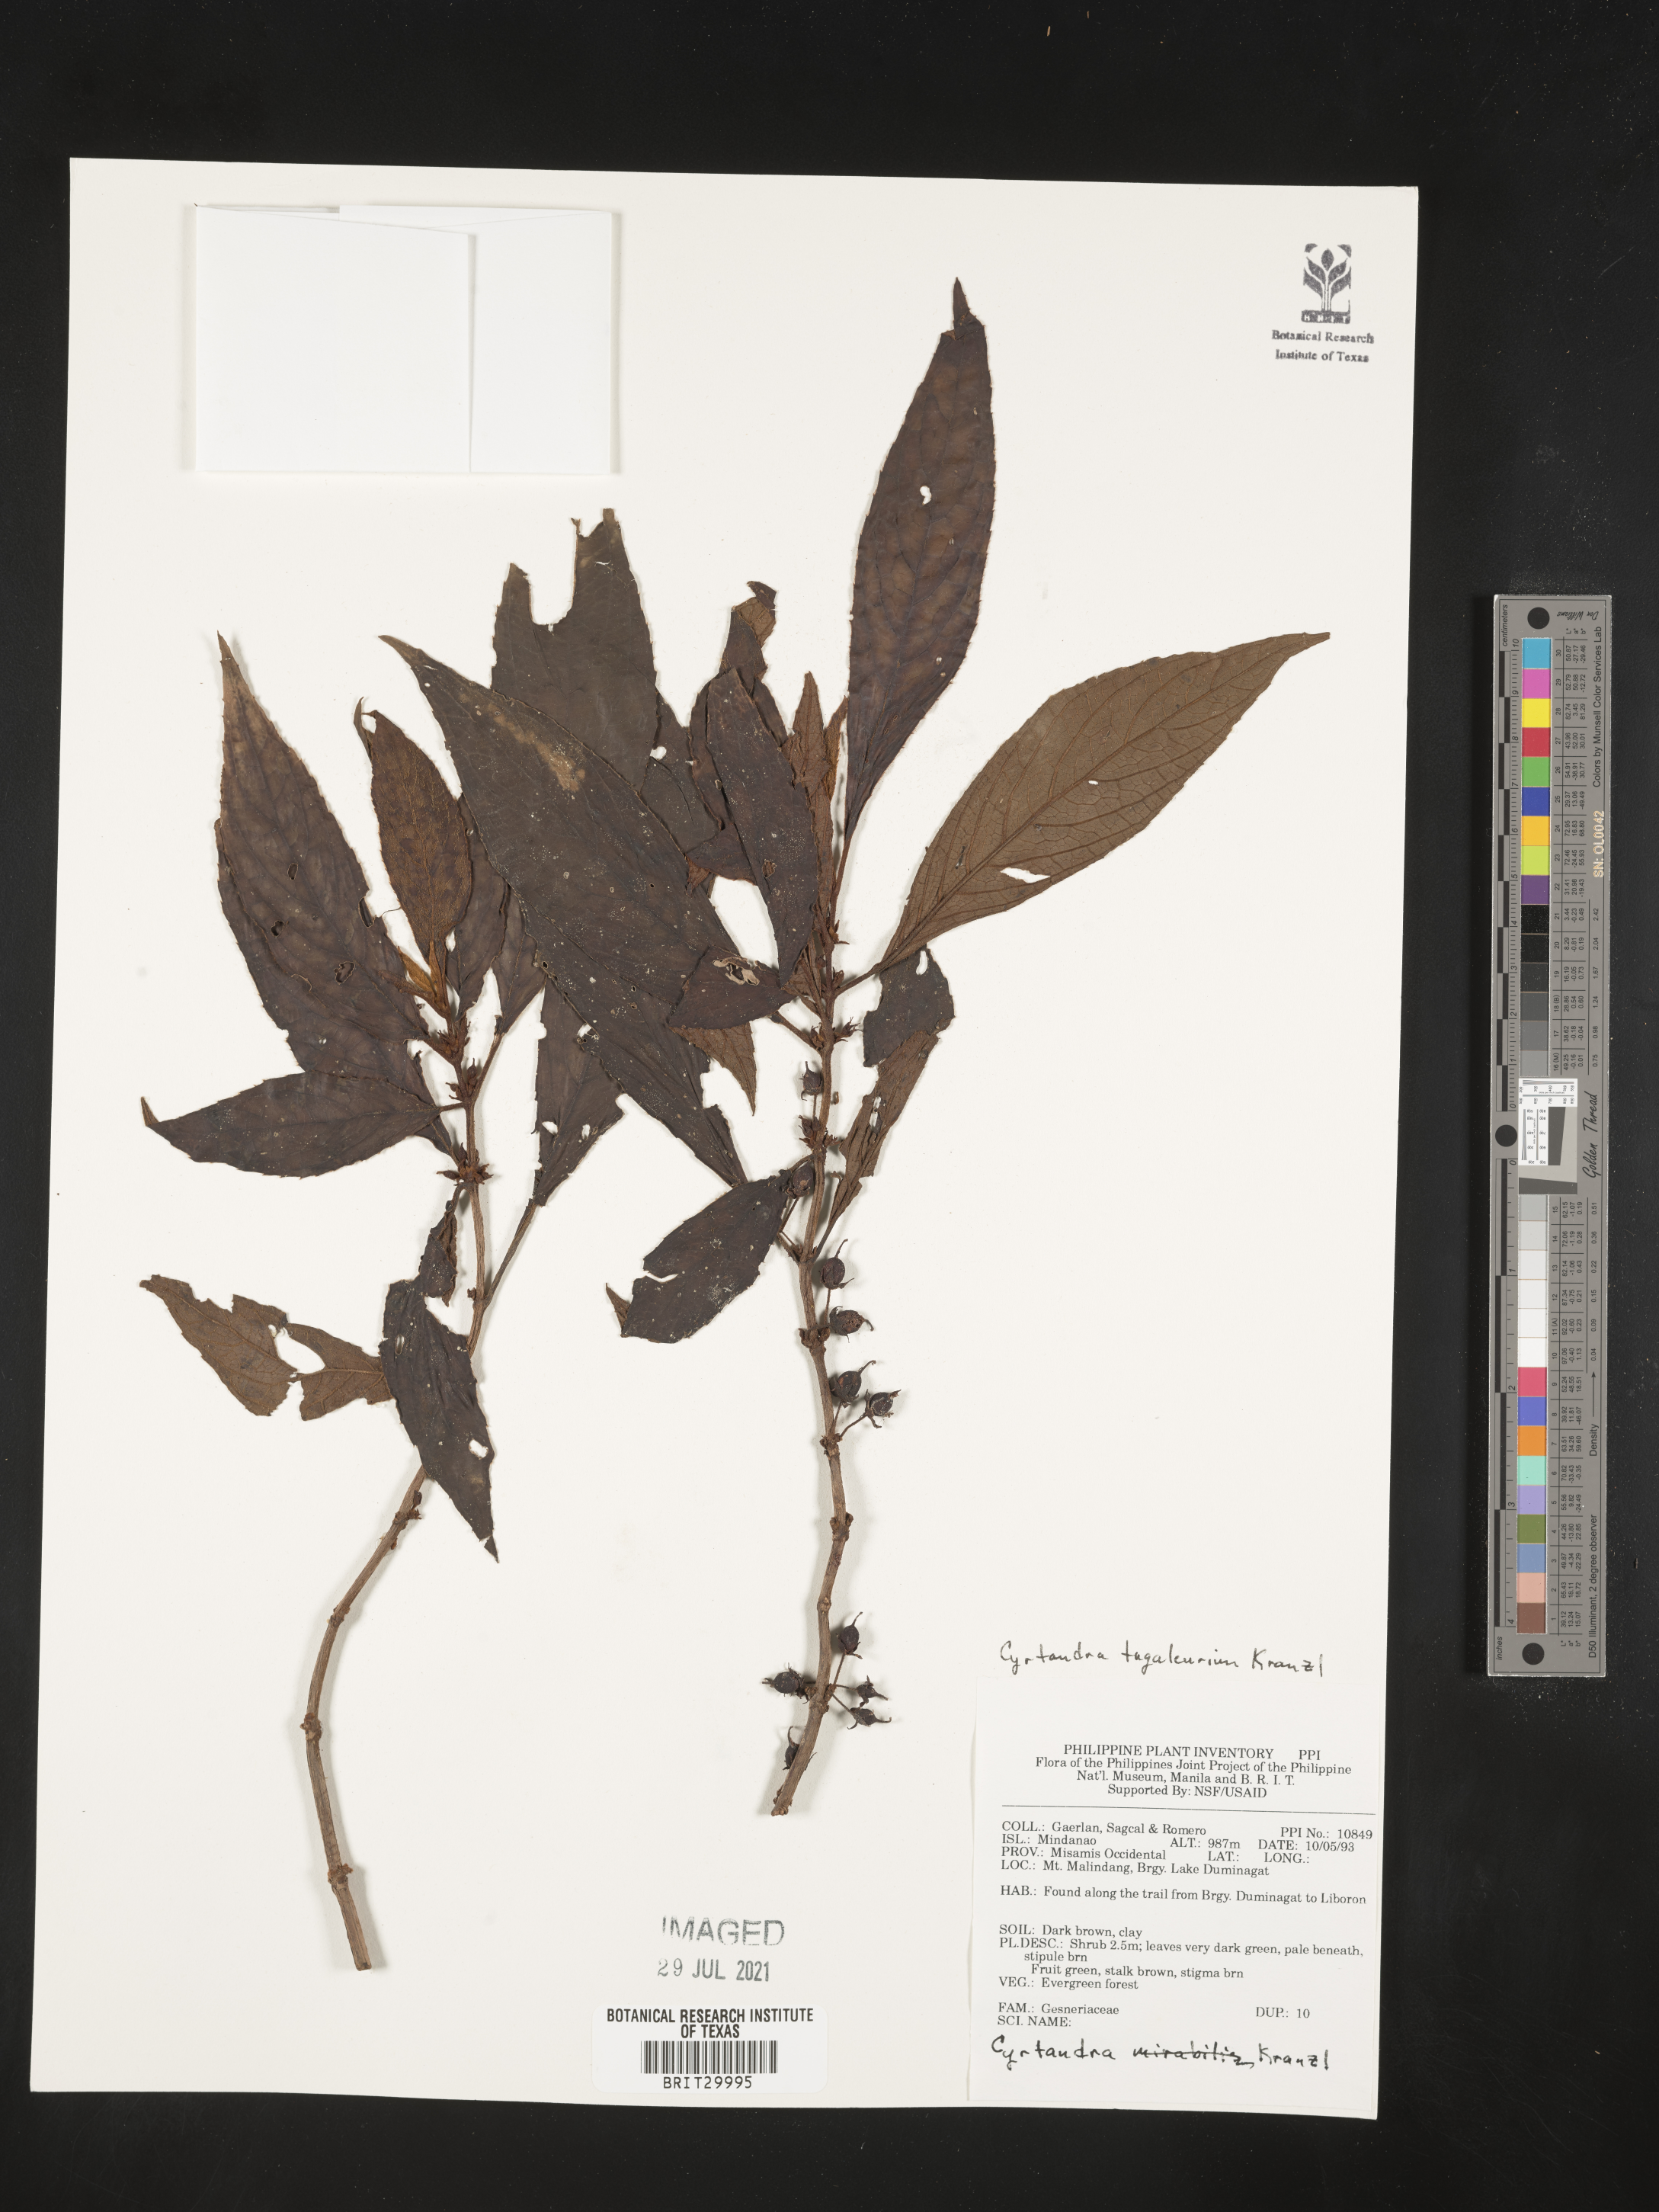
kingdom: Plantae
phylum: Tracheophyta
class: Magnoliopsida
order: Lamiales
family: Gesneriaceae
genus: Cyrtandra
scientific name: Cyrtandra tagaleurium
